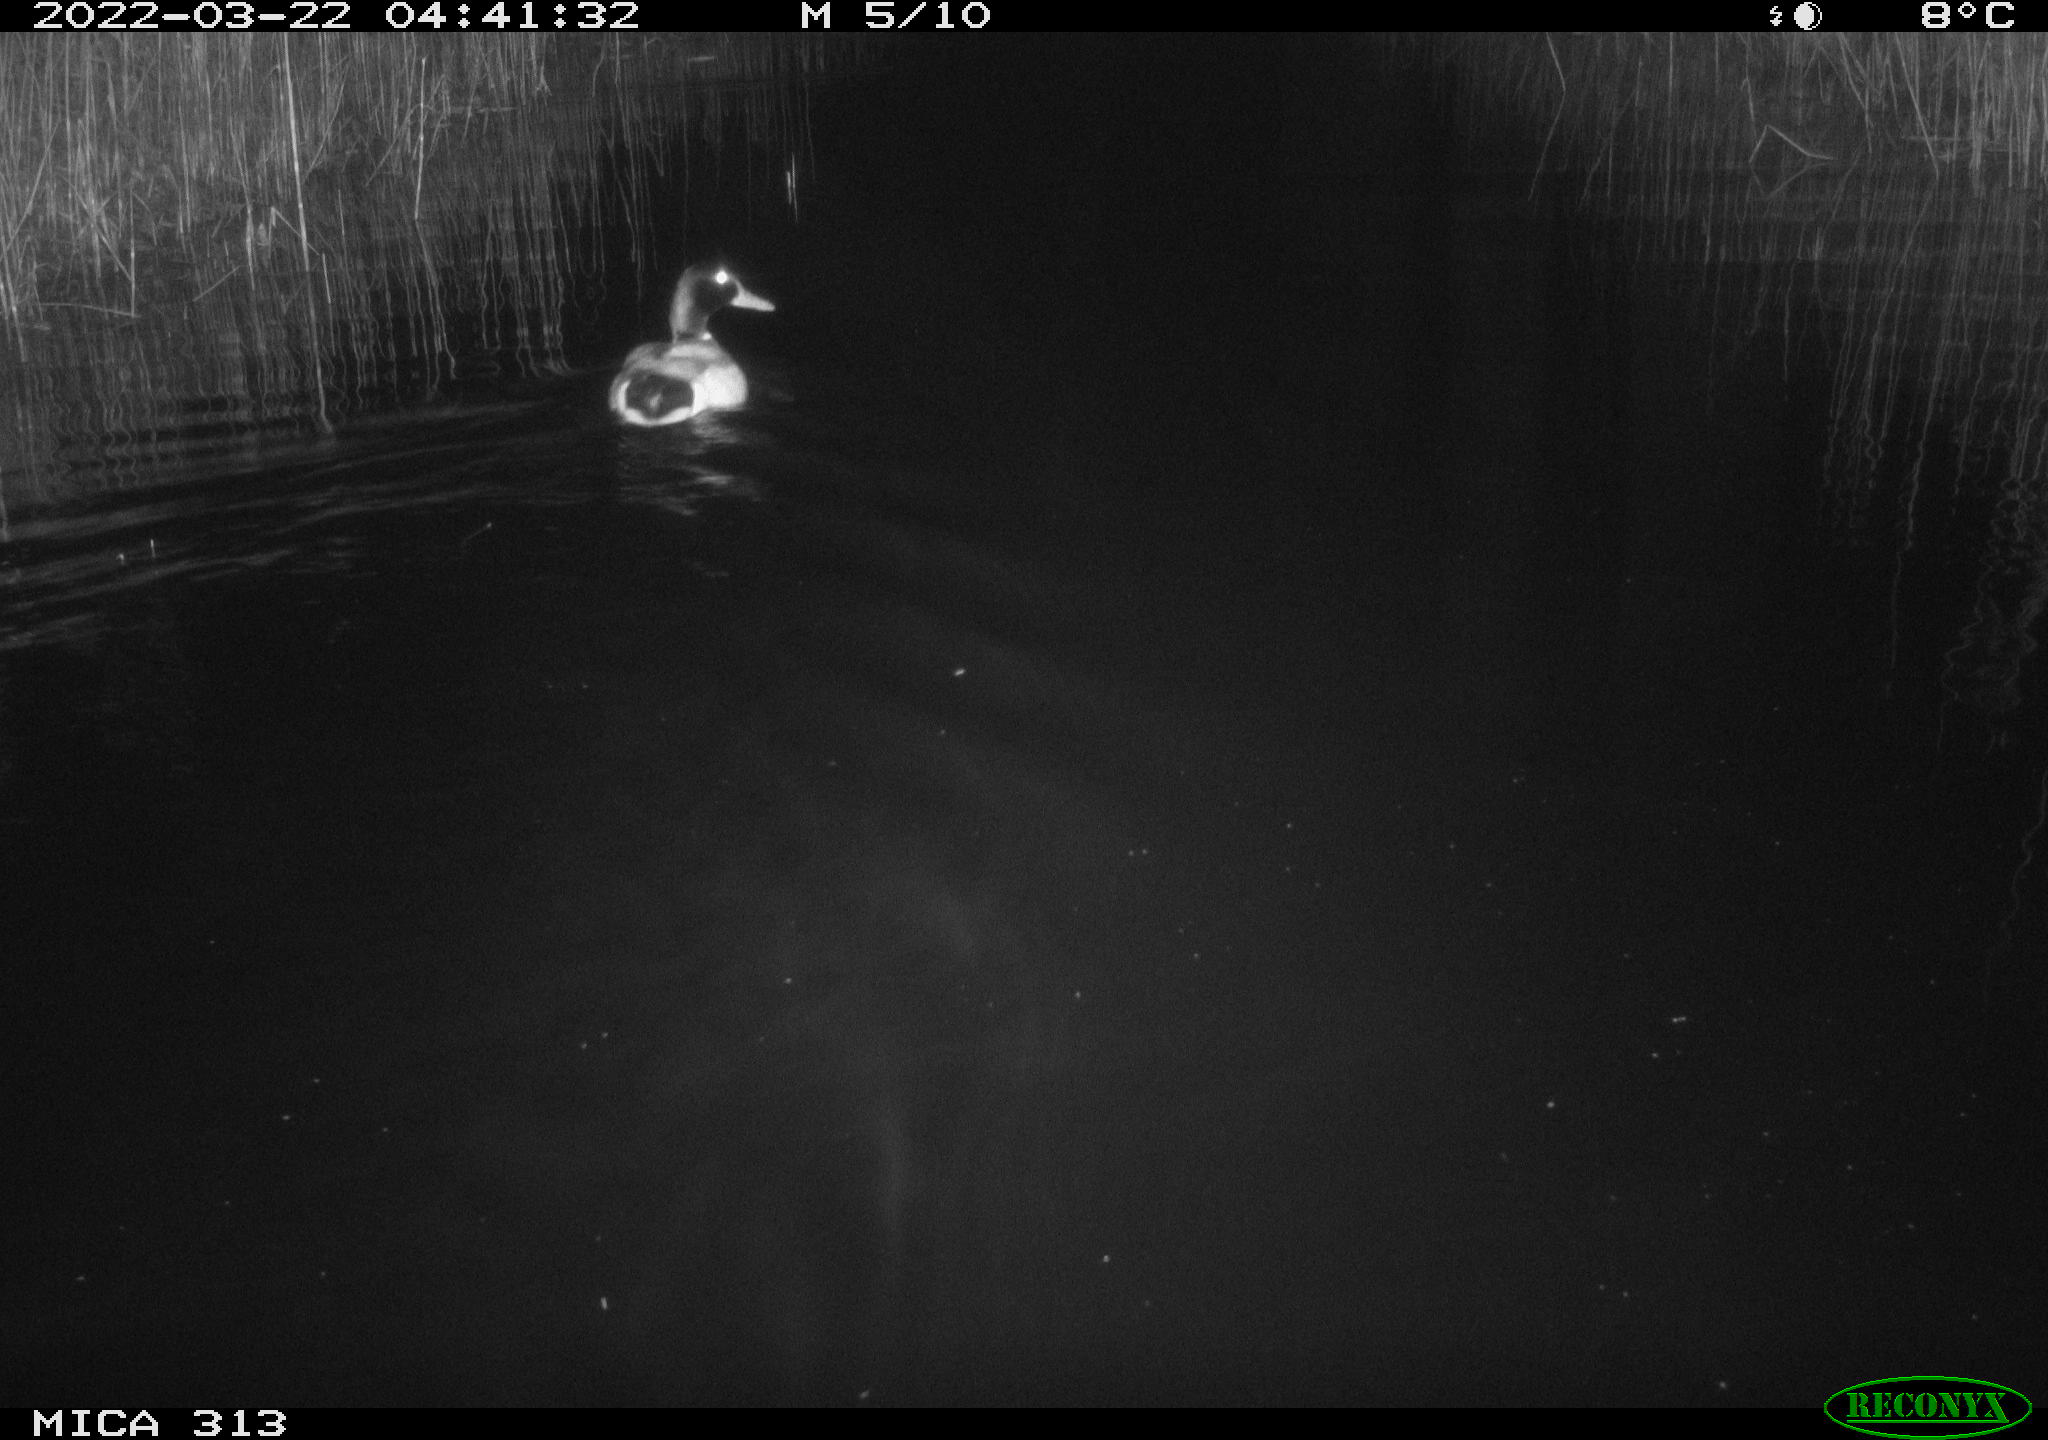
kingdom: Animalia
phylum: Chordata
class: Aves
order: Anseriformes
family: Anatidae
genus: Anas
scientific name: Anas platyrhynchos
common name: Mallard
